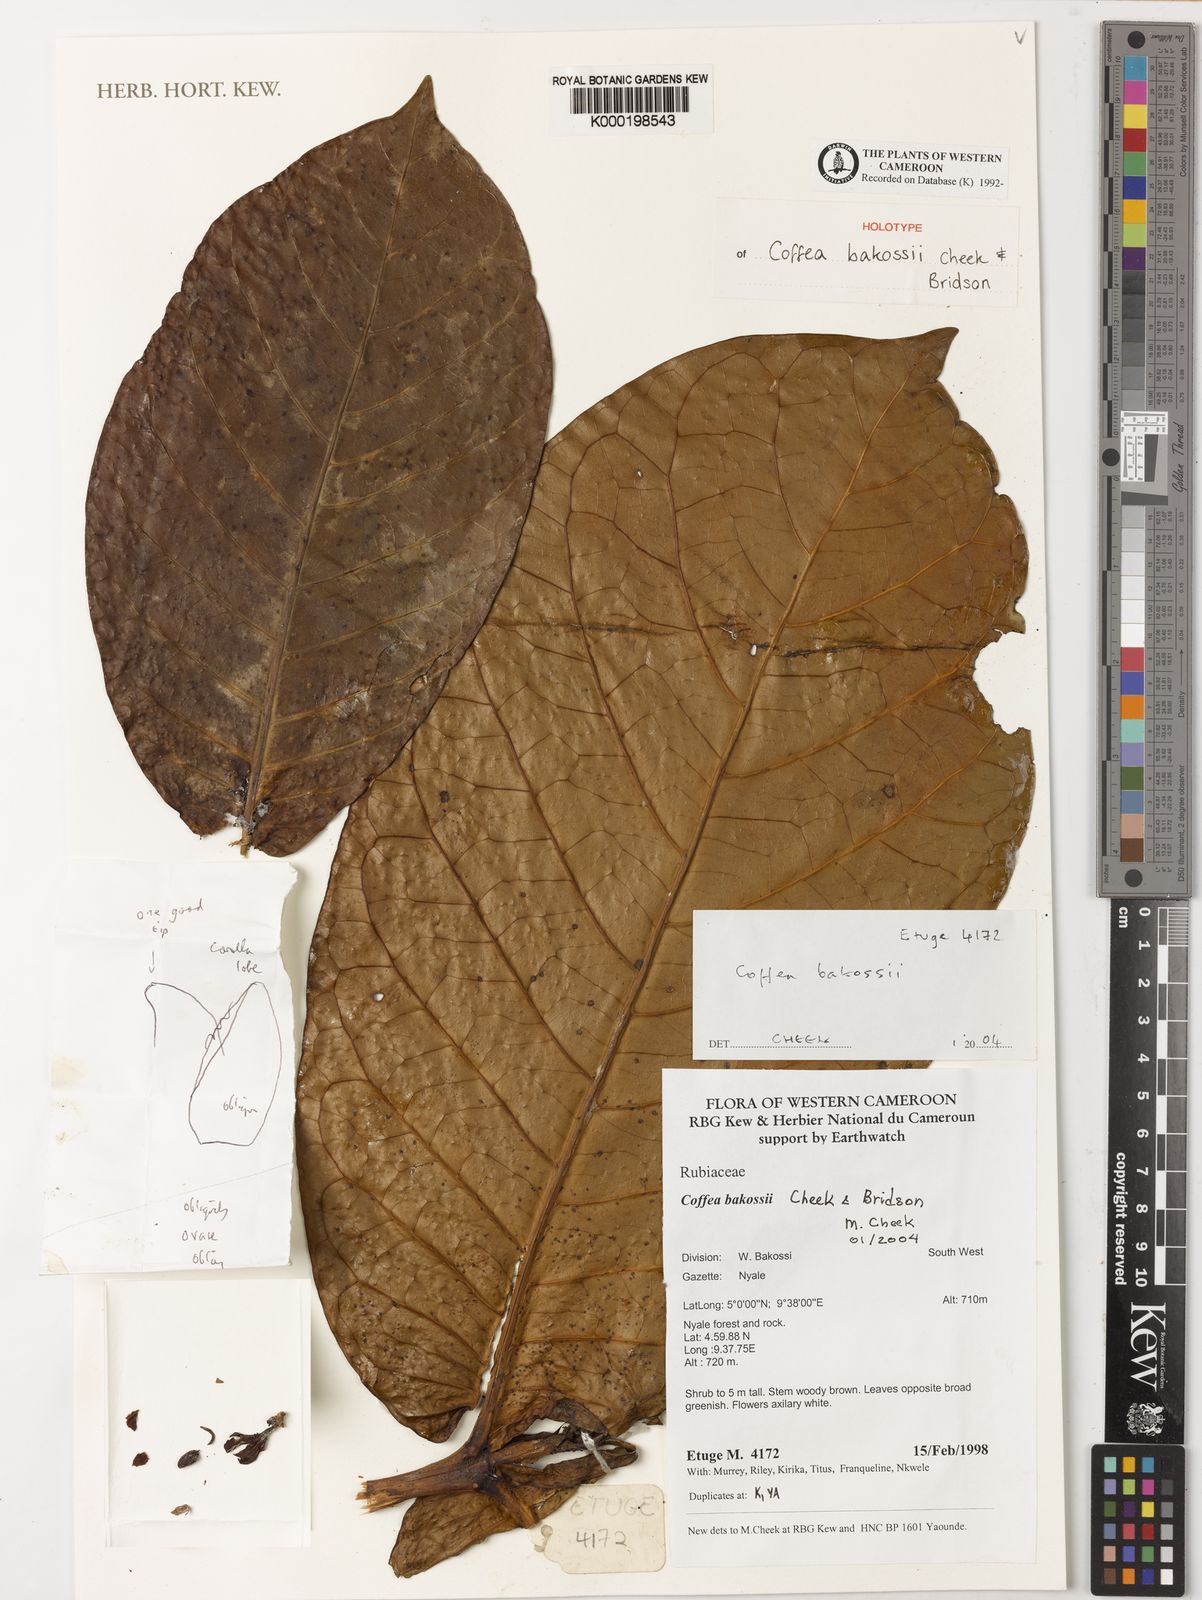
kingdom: Plantae
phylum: Tracheophyta
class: Magnoliopsida
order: Gentianales
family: Rubiaceae
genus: Coffea
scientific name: Coffea bakossii
